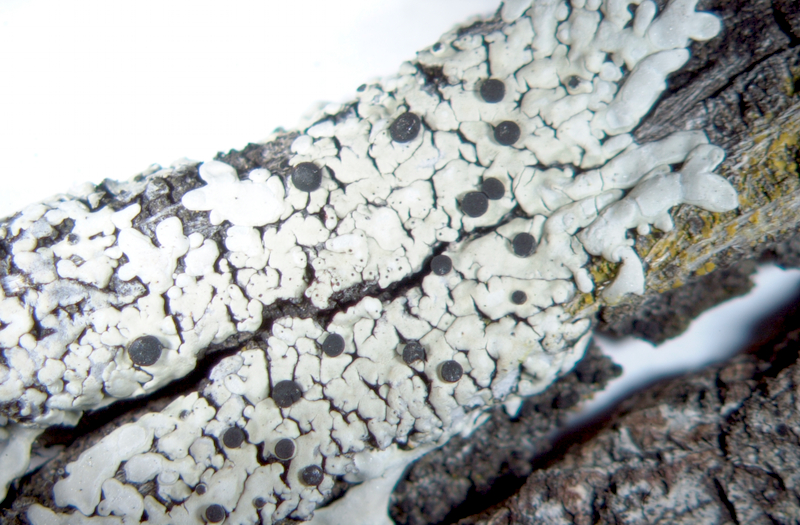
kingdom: Fungi
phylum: Ascomycota
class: Lecanoromycetes
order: Caliciales
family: Caliciaceae
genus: Pyxine
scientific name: Pyxine petricola
